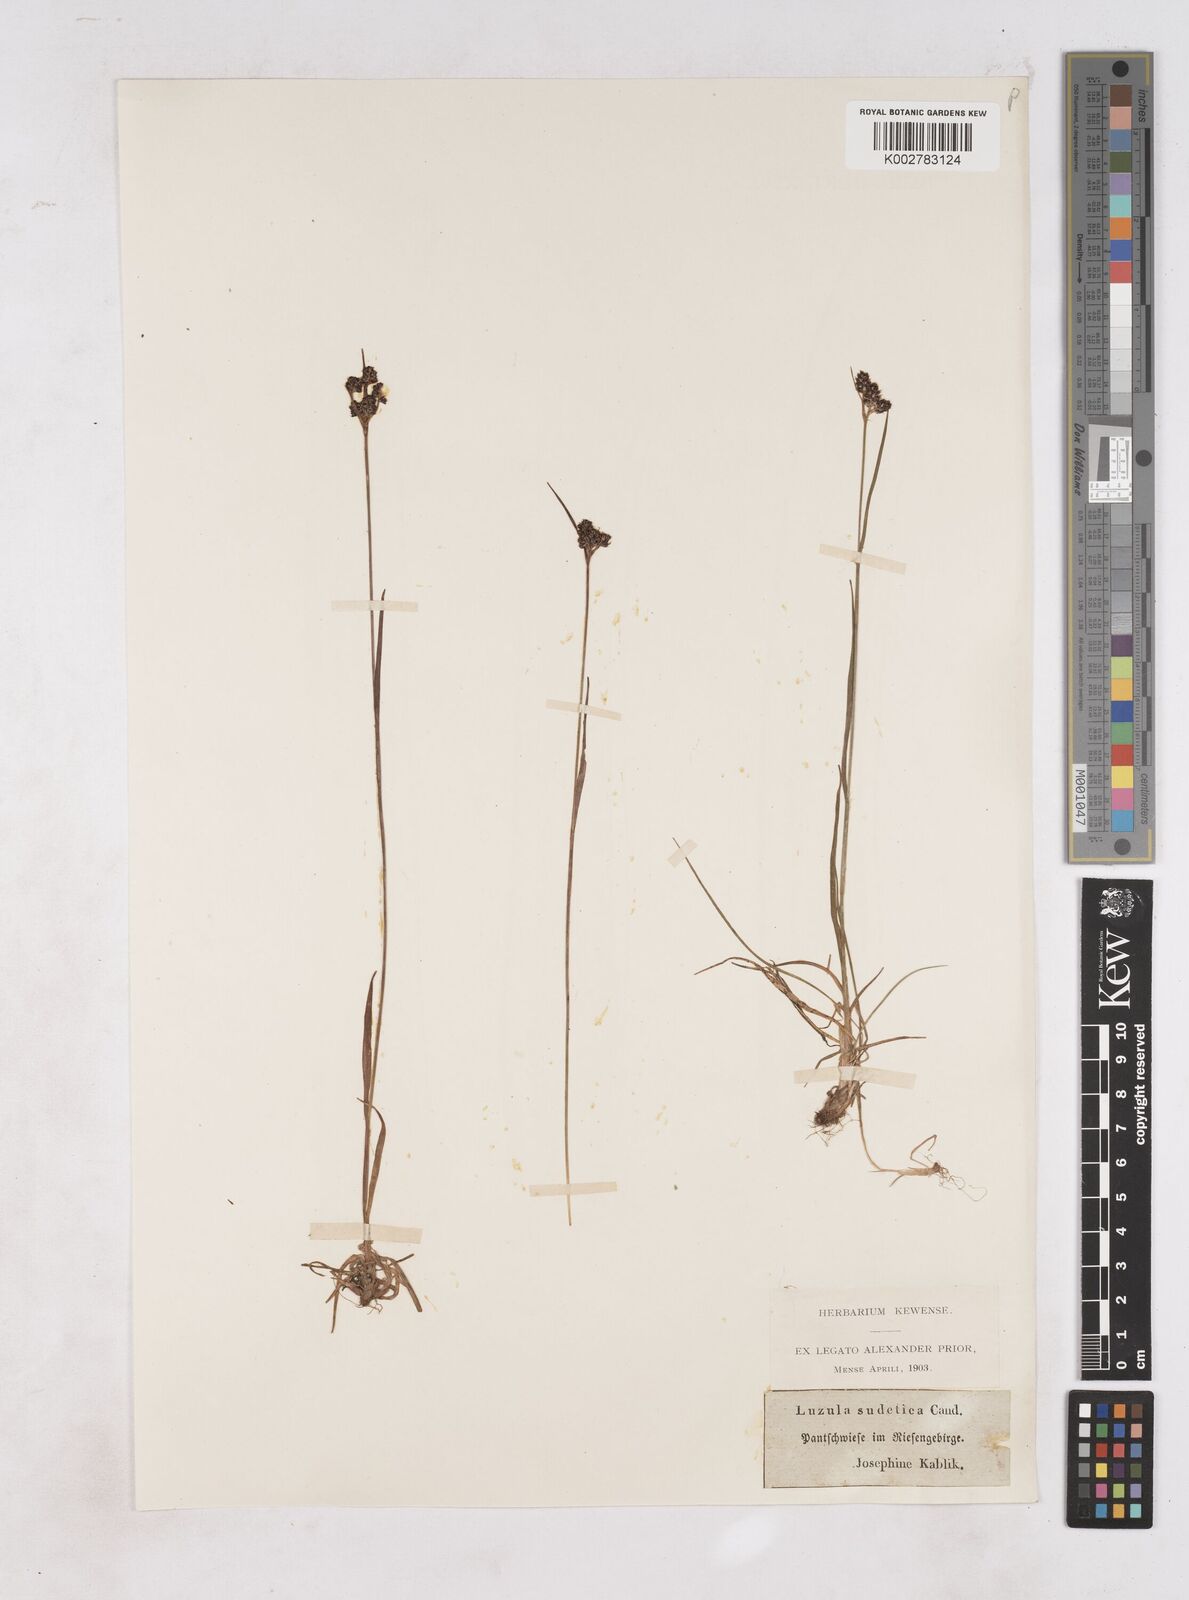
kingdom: Plantae
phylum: Tracheophyta
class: Liliopsida
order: Poales
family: Juncaceae
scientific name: Juncaceae
